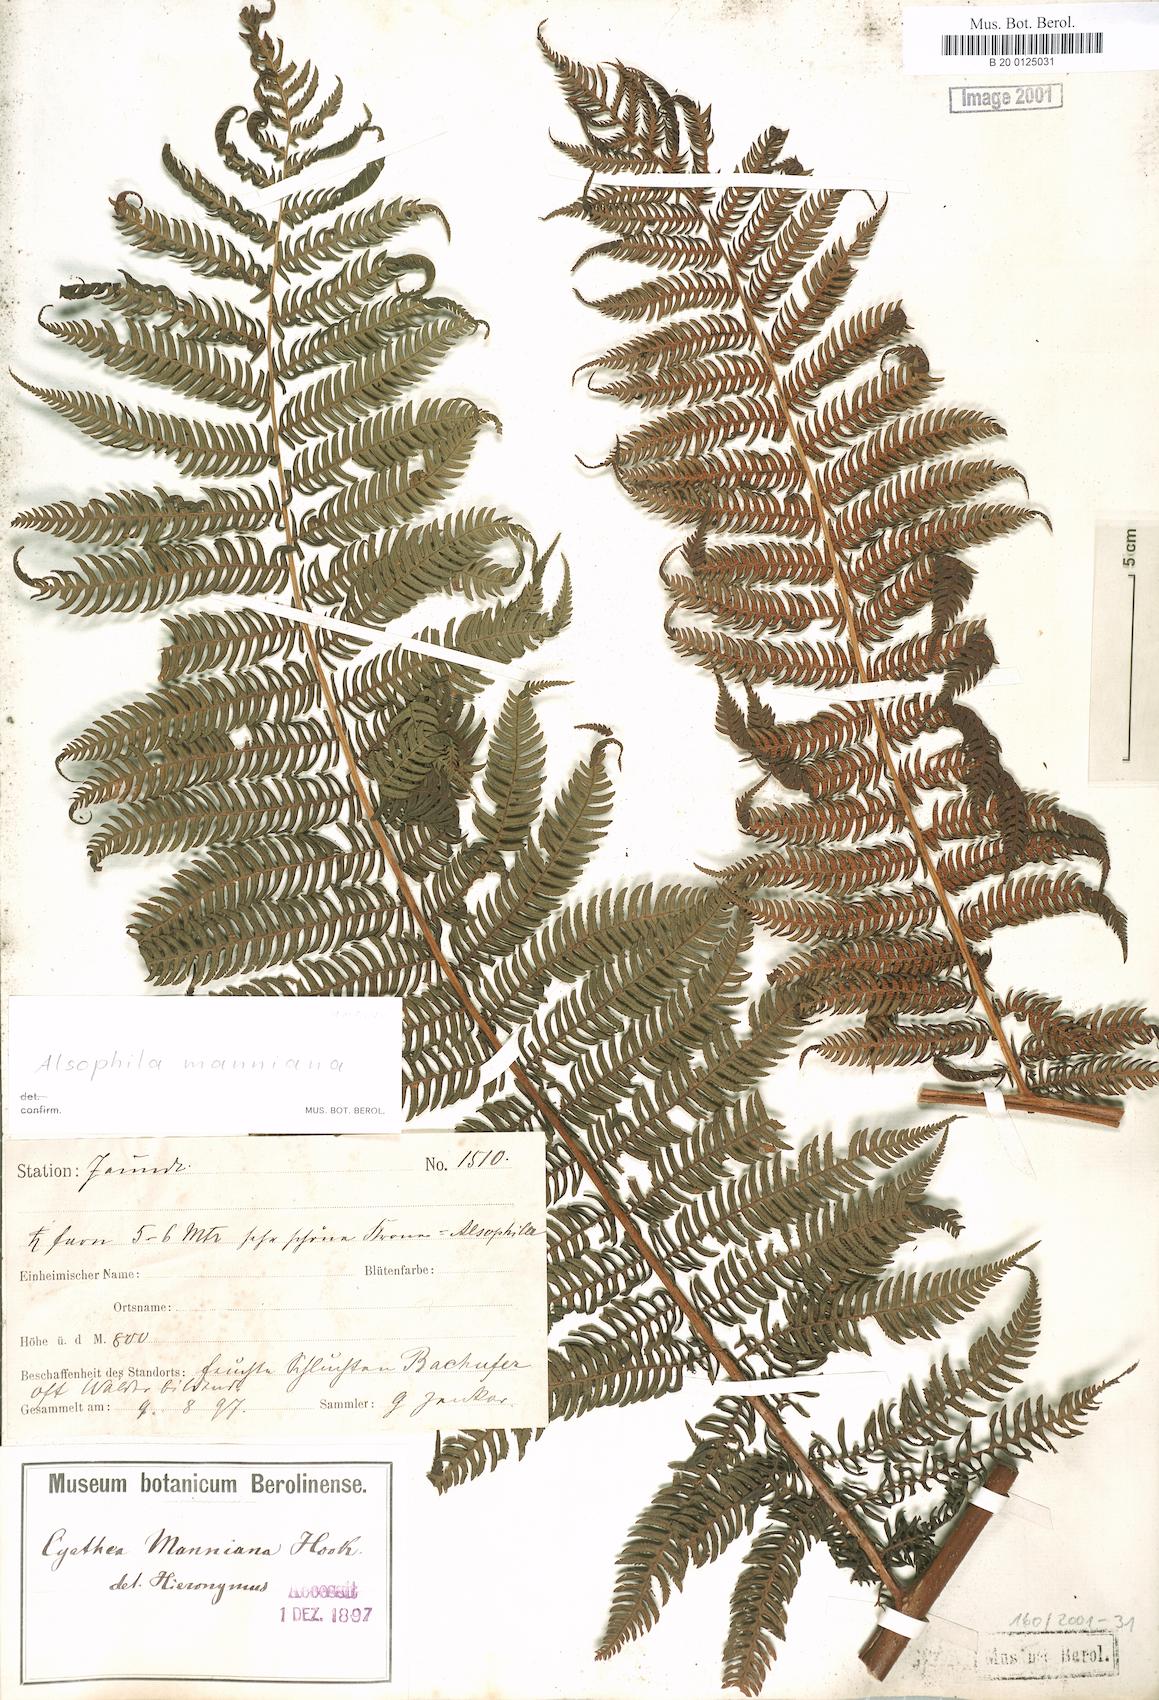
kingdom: Plantae
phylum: Tracheophyta
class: Polypodiopsida
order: Cyatheales
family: Cyatheaceae
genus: Alsophila
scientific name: Alsophila manniana
